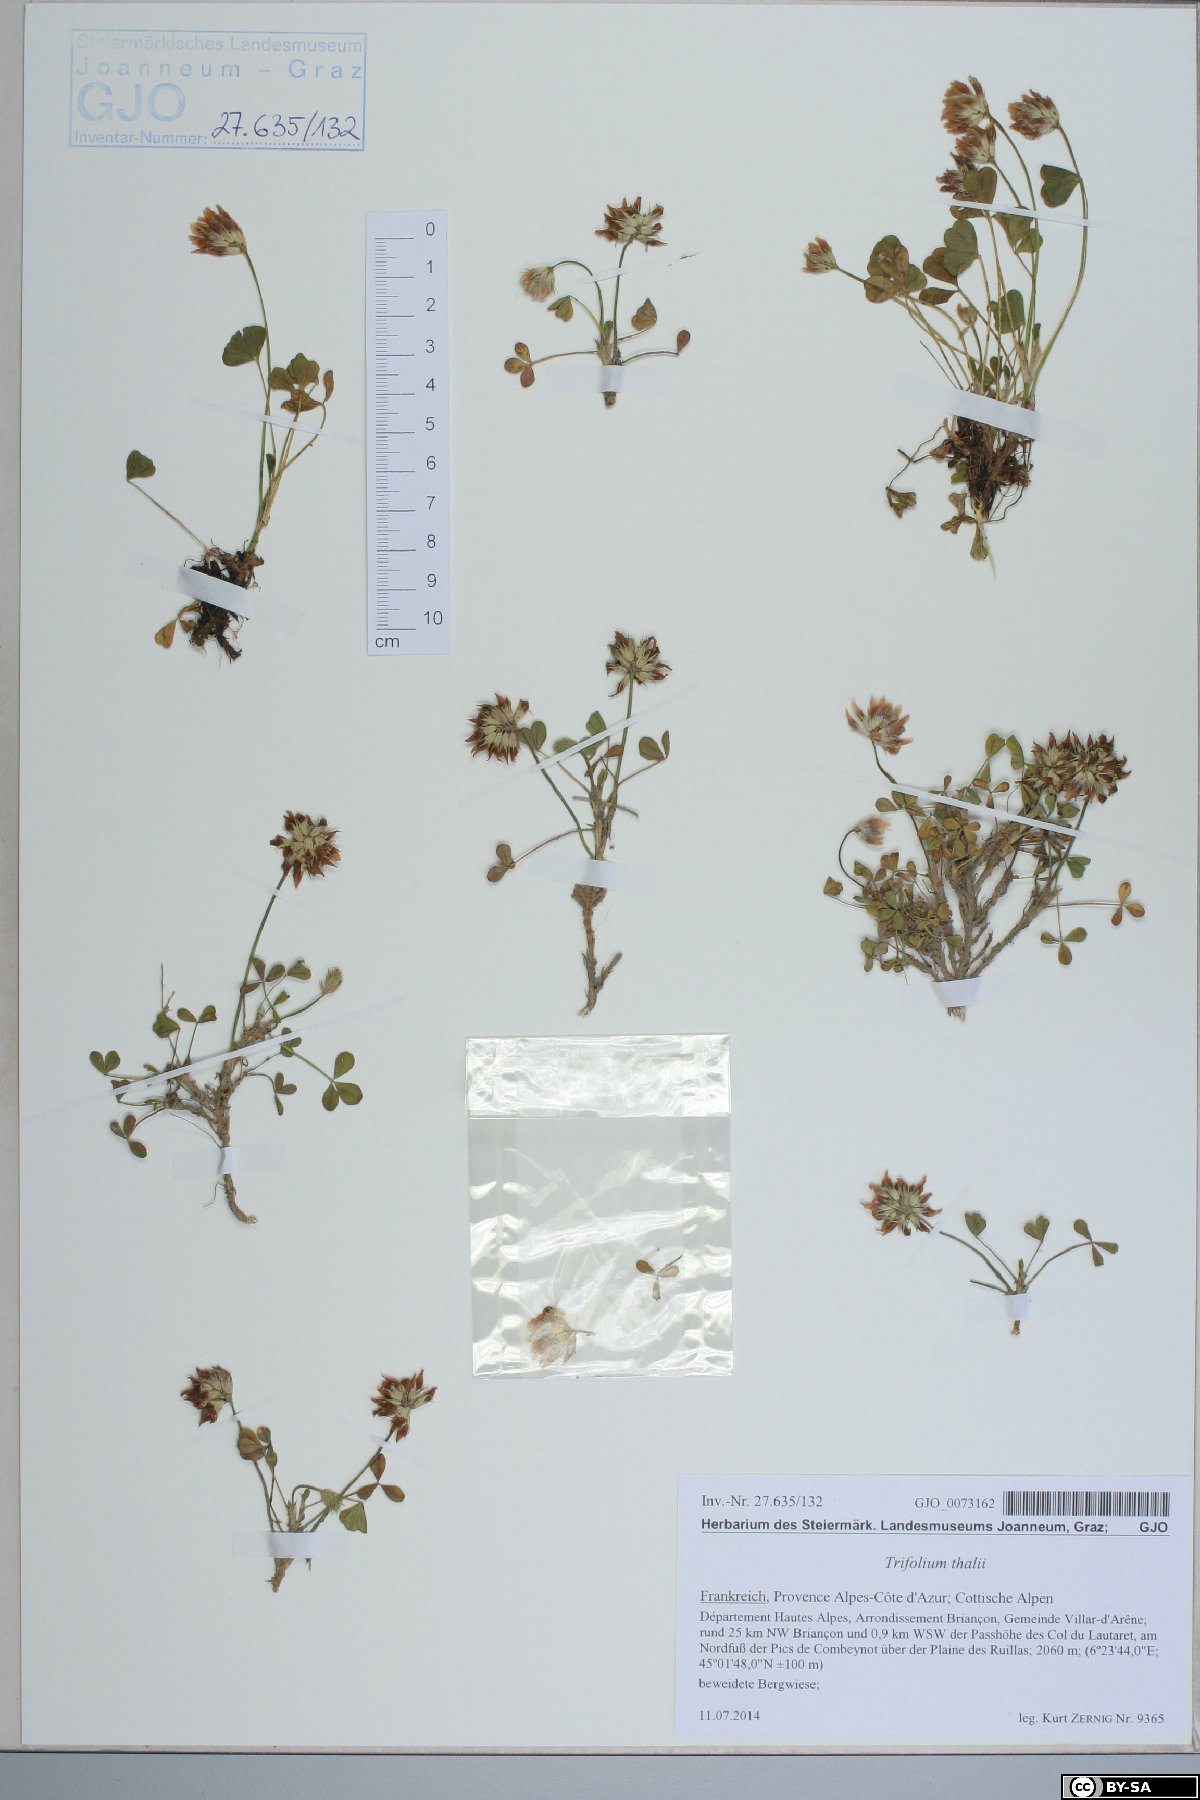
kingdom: Plantae
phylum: Tracheophyta
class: Magnoliopsida
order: Fabales
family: Fabaceae
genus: Trifolium
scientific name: Trifolium thalii
